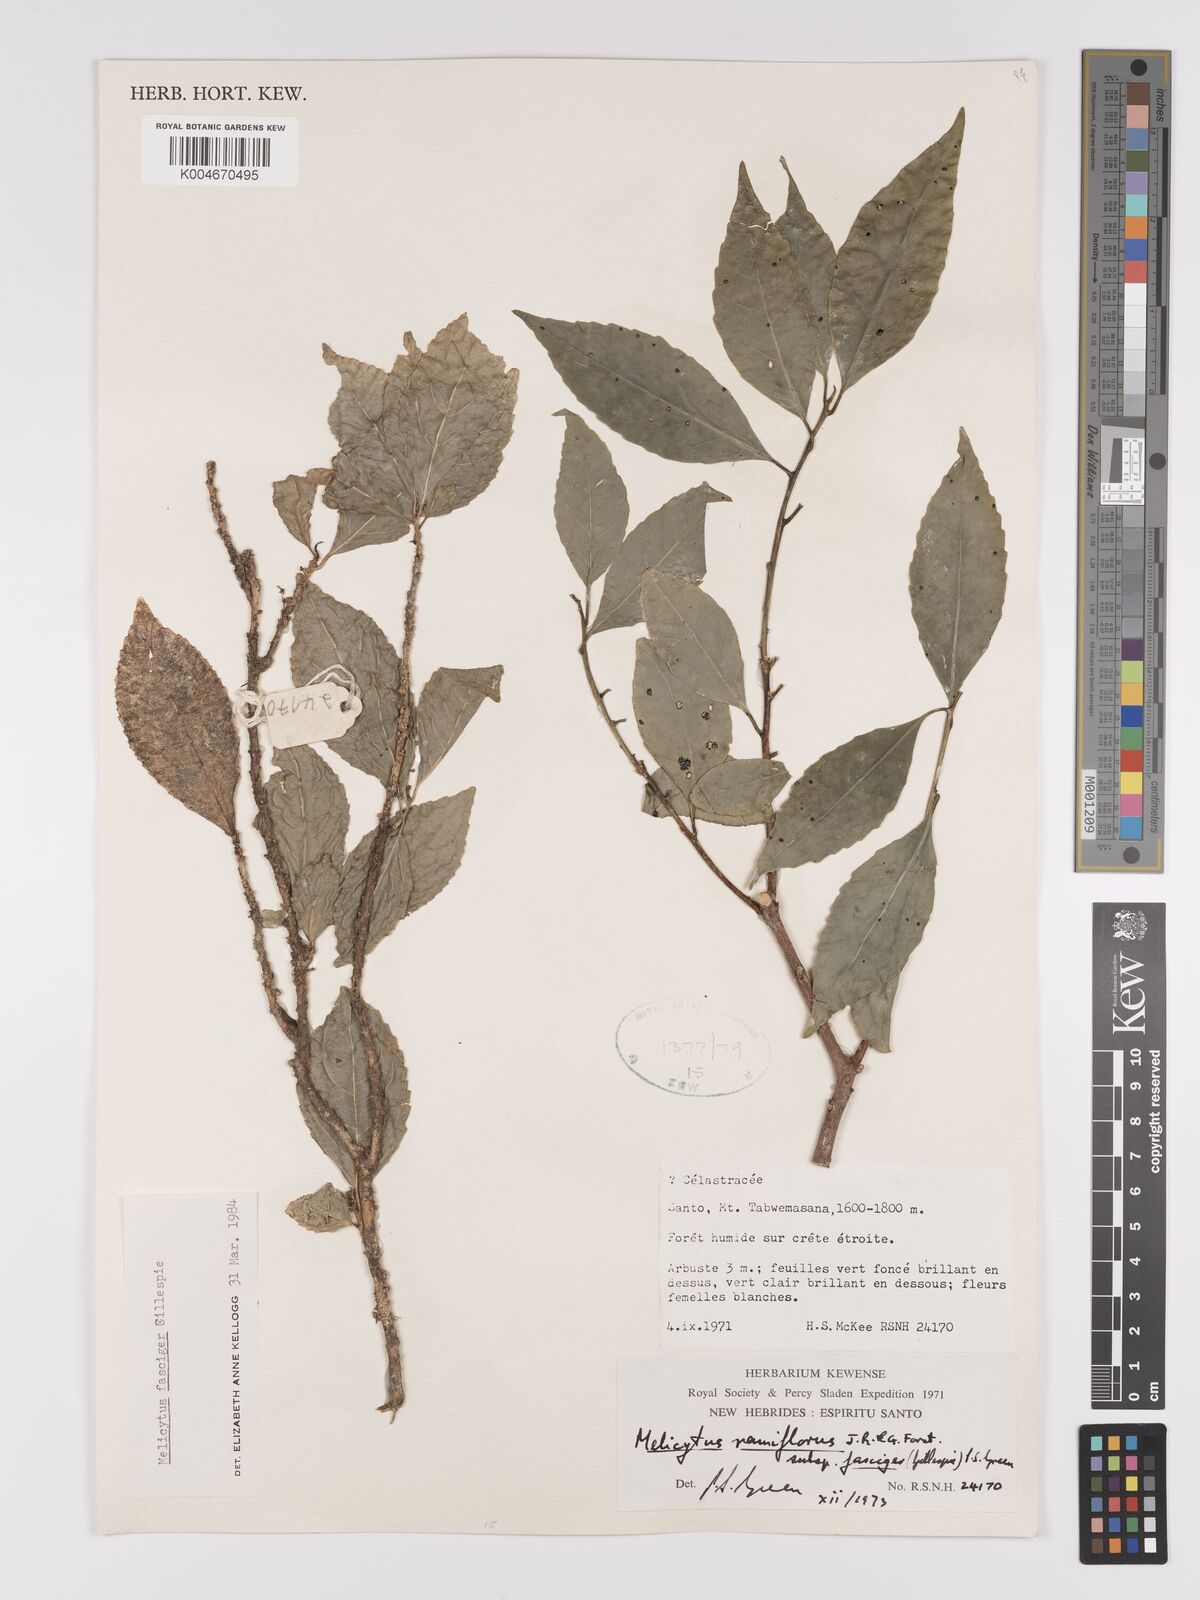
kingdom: Plantae
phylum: Tracheophyta
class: Magnoliopsida
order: Malpighiales
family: Violaceae
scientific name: Violaceae
